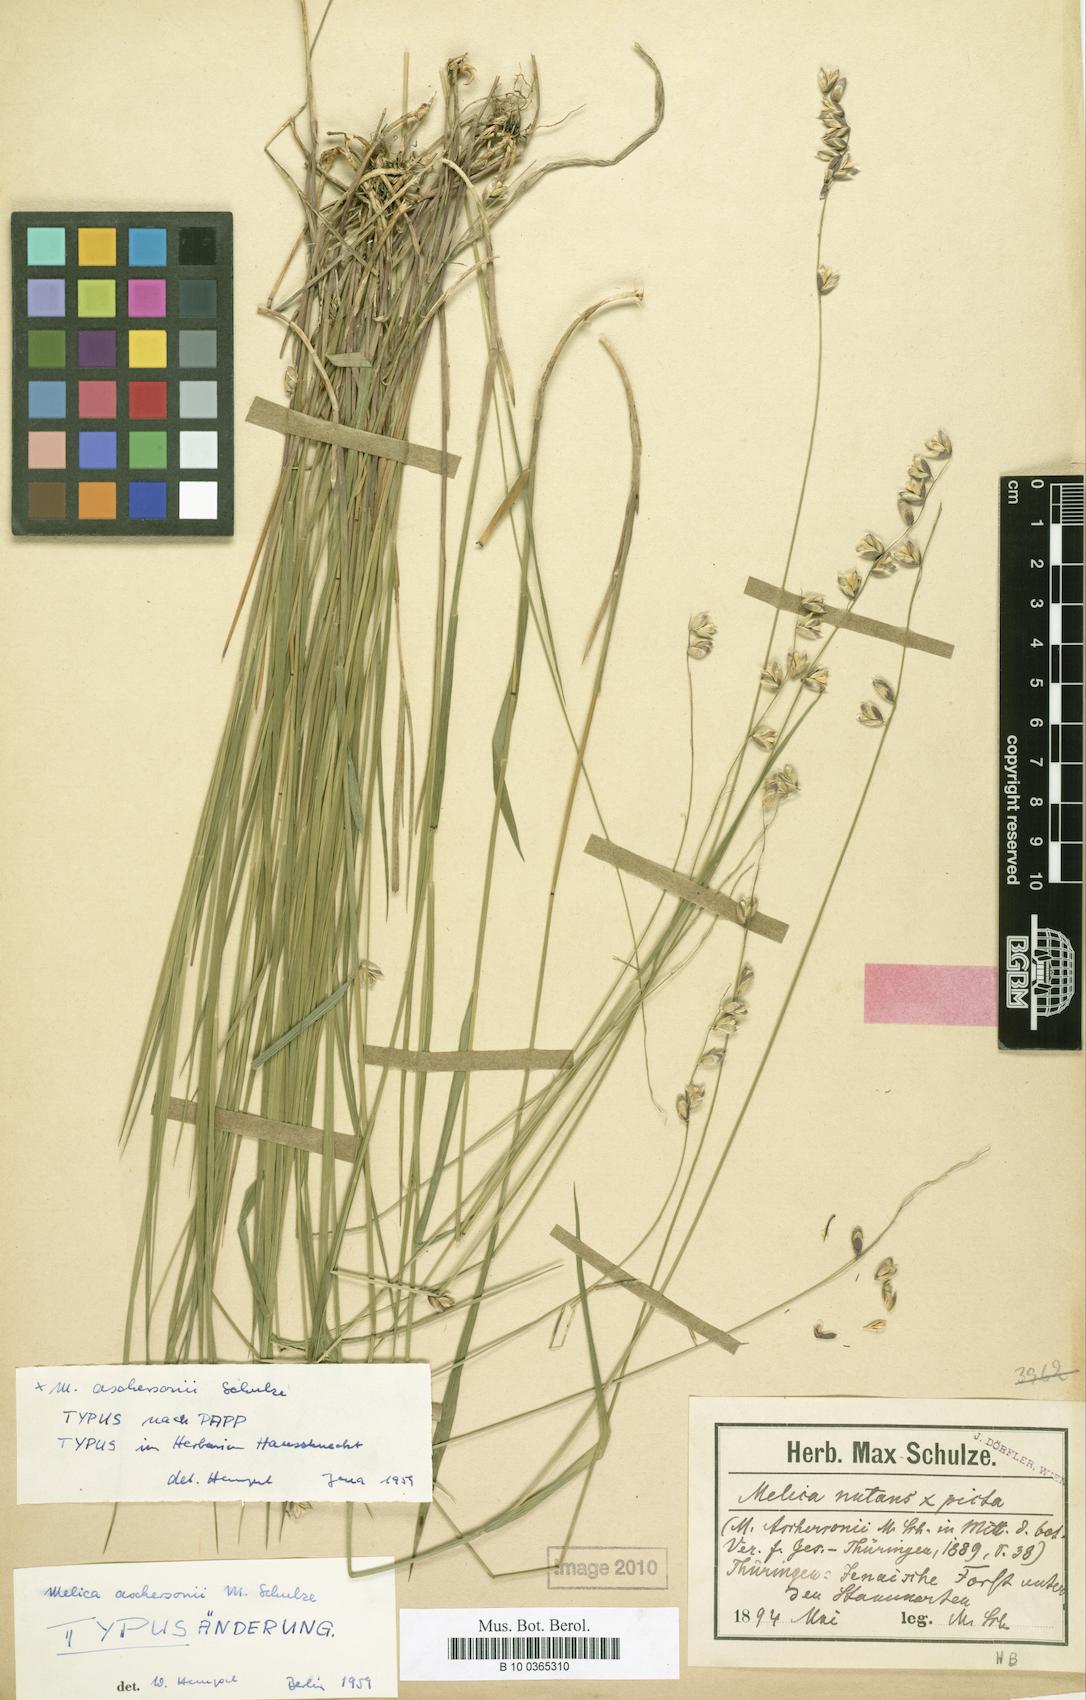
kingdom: Plantae
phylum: Tracheophyta
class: Liliopsida
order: Poales
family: Poaceae
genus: Melica
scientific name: Melica aschersonii
